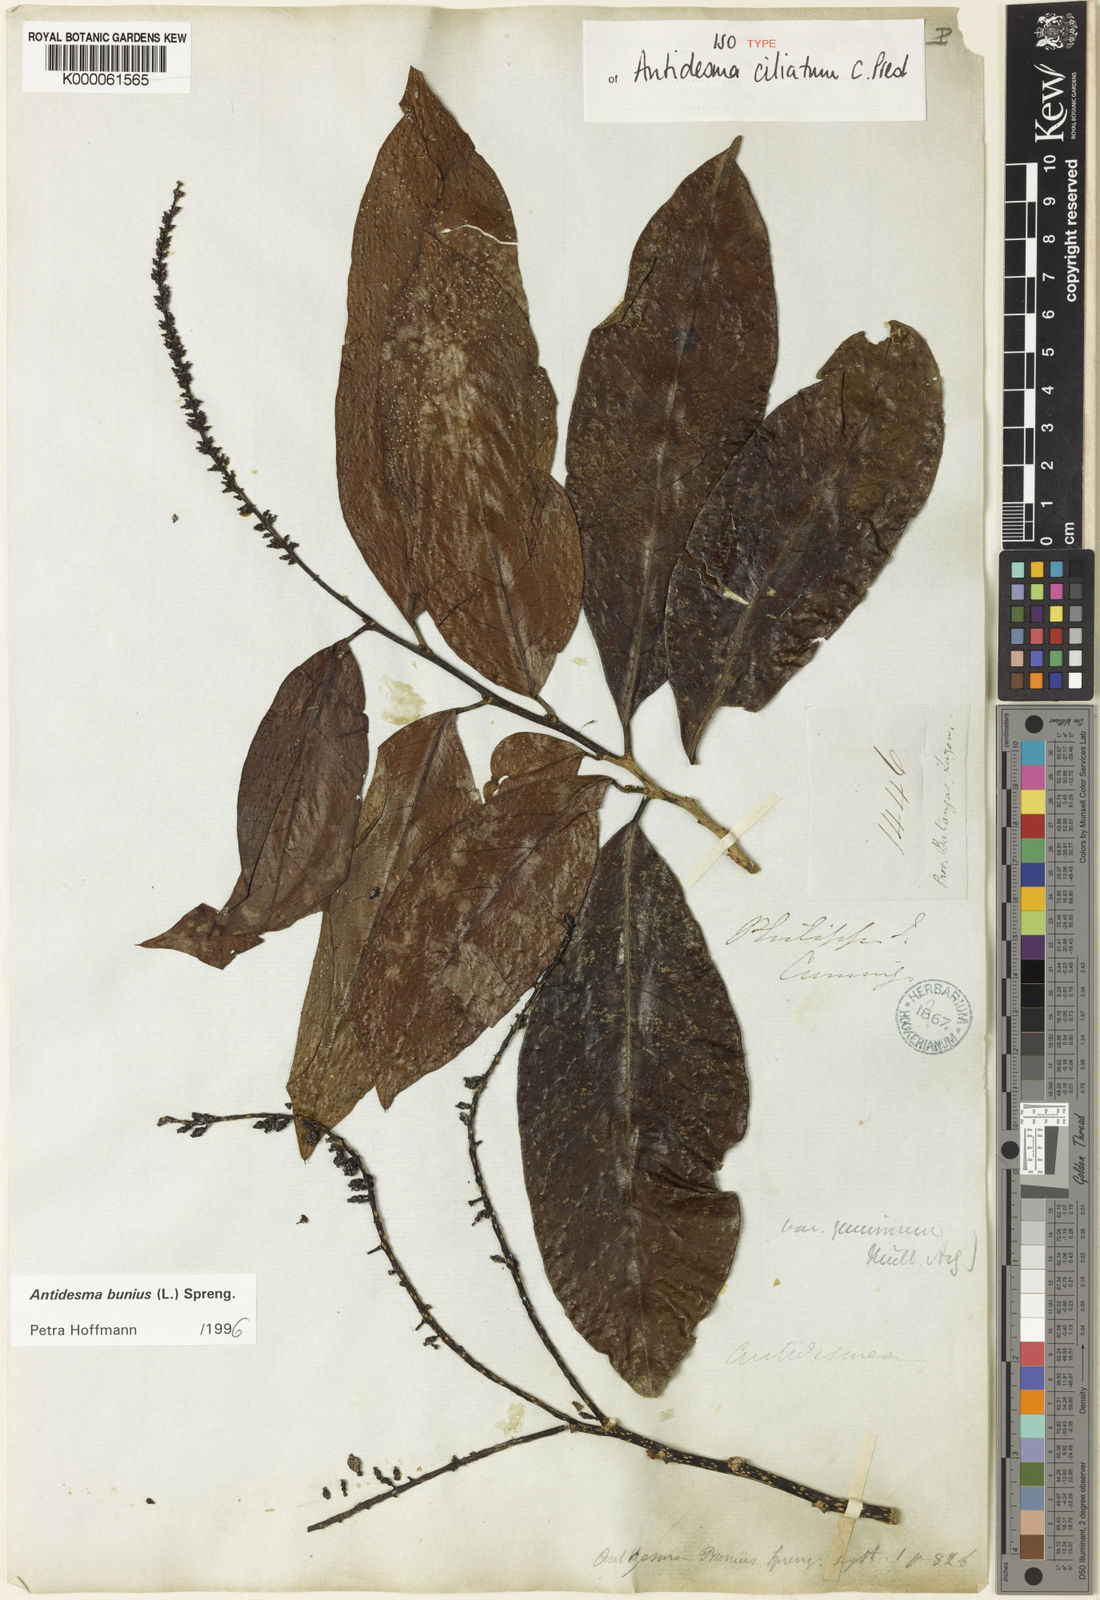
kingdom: Plantae
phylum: Tracheophyta
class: Magnoliopsida
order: Malpighiales
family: Phyllanthaceae
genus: Antidesma
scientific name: Antidesma bunius
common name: Chinese-laurel
